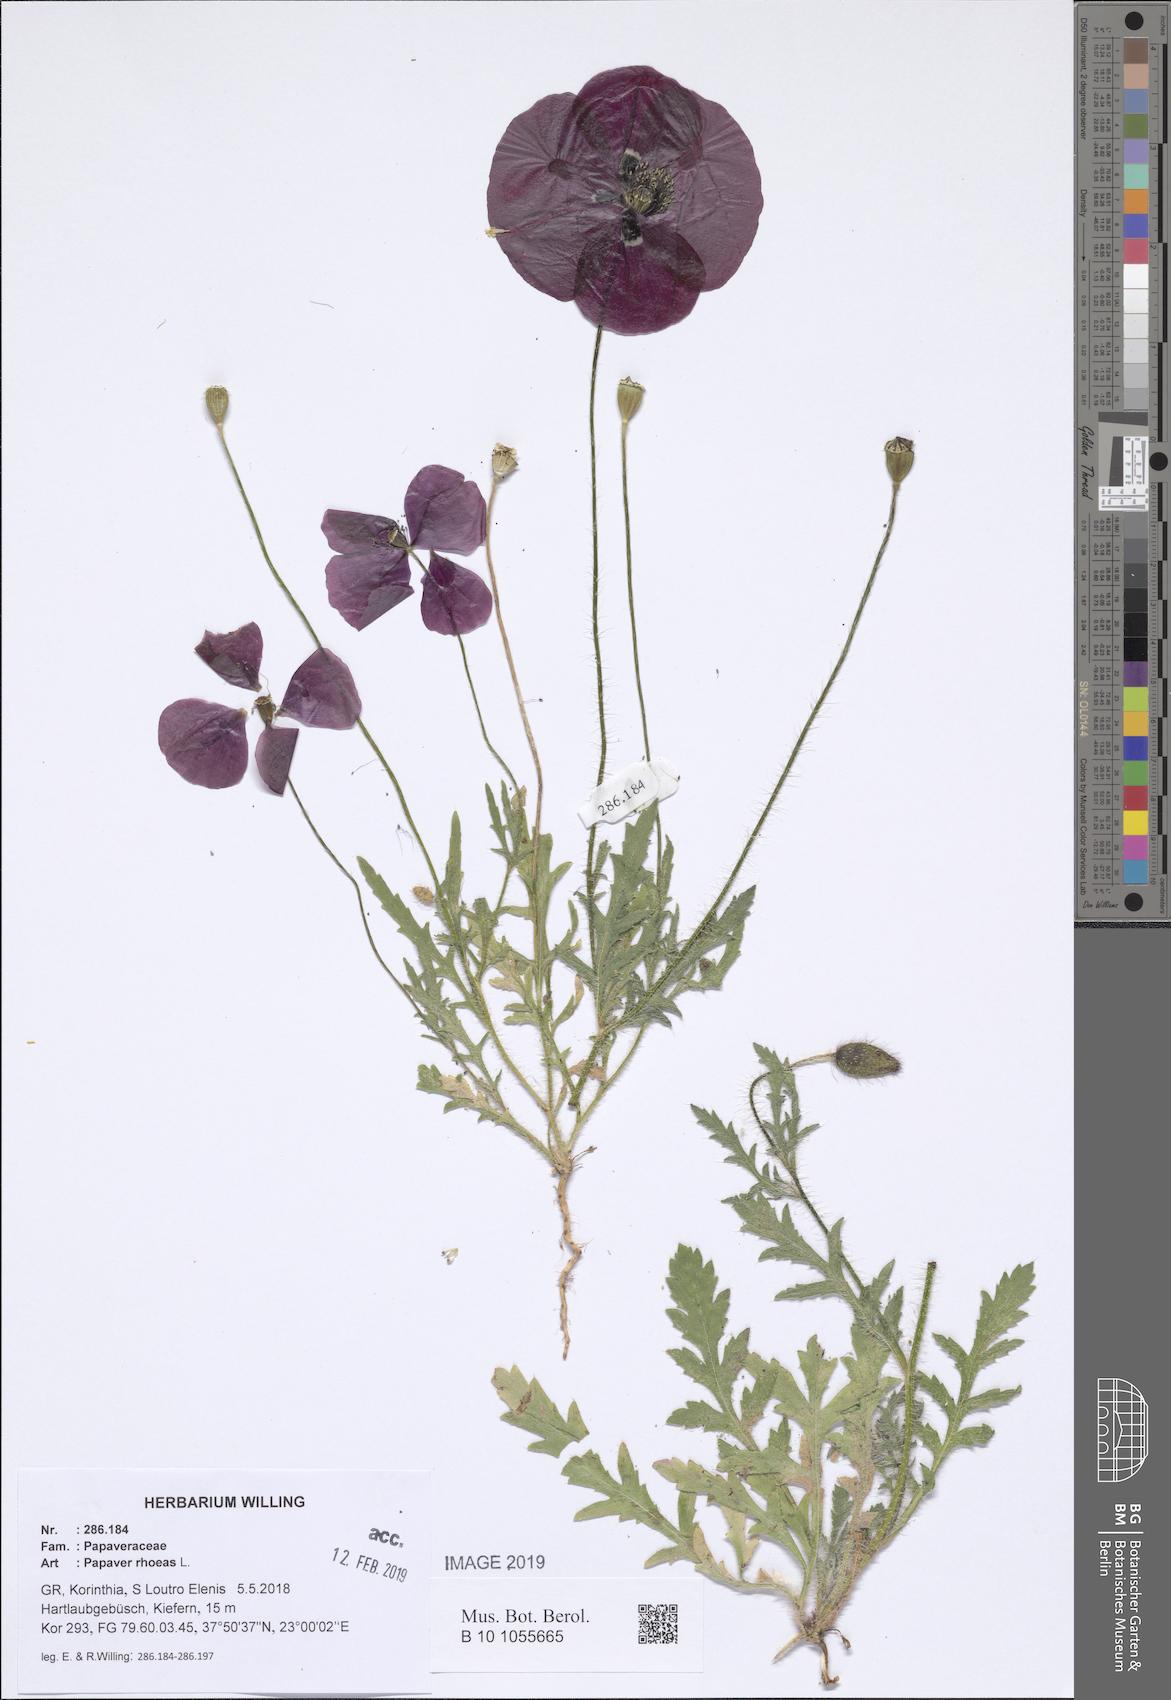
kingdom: Plantae
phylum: Tracheophyta
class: Magnoliopsida
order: Ranunculales
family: Papaveraceae
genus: Papaver
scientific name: Papaver rhoeas
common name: Corn poppy
